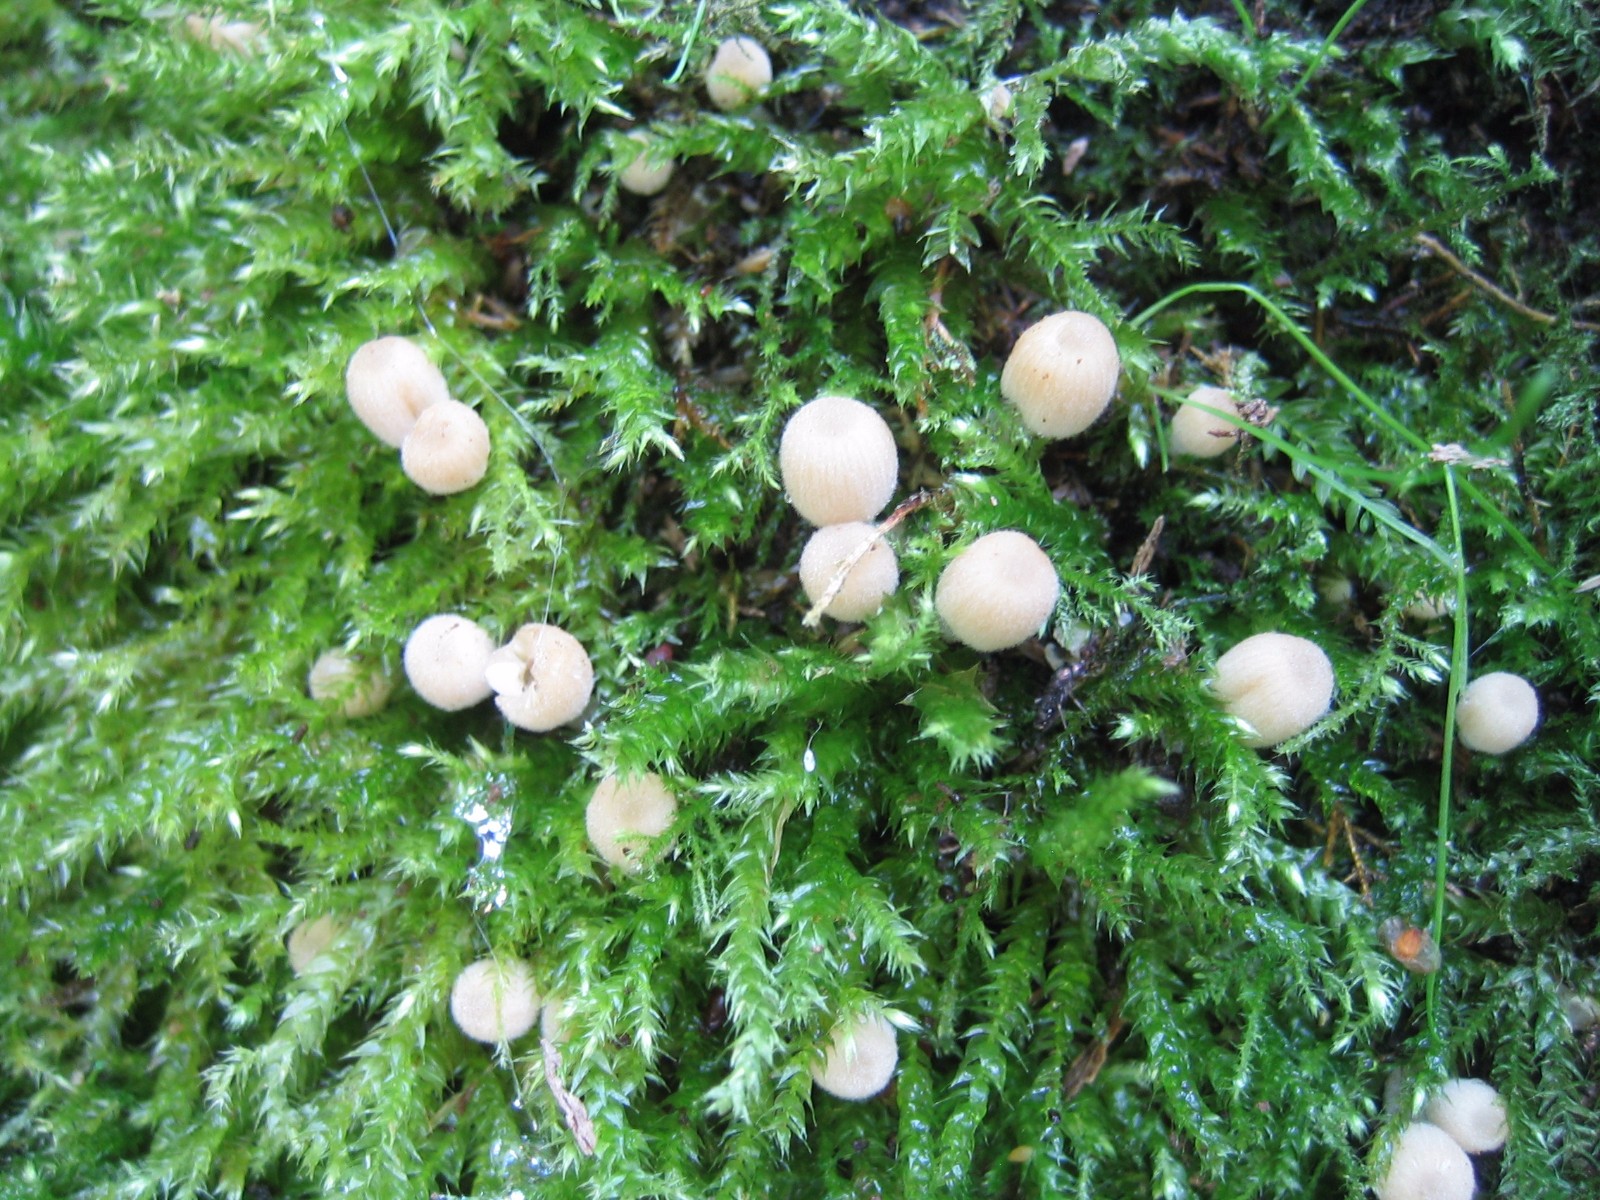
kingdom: Fungi
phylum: Basidiomycota
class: Agaricomycetes
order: Agaricales
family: Psathyrellaceae
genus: Coprinellus
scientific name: Coprinellus disseminatus
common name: bredsået blækhat
